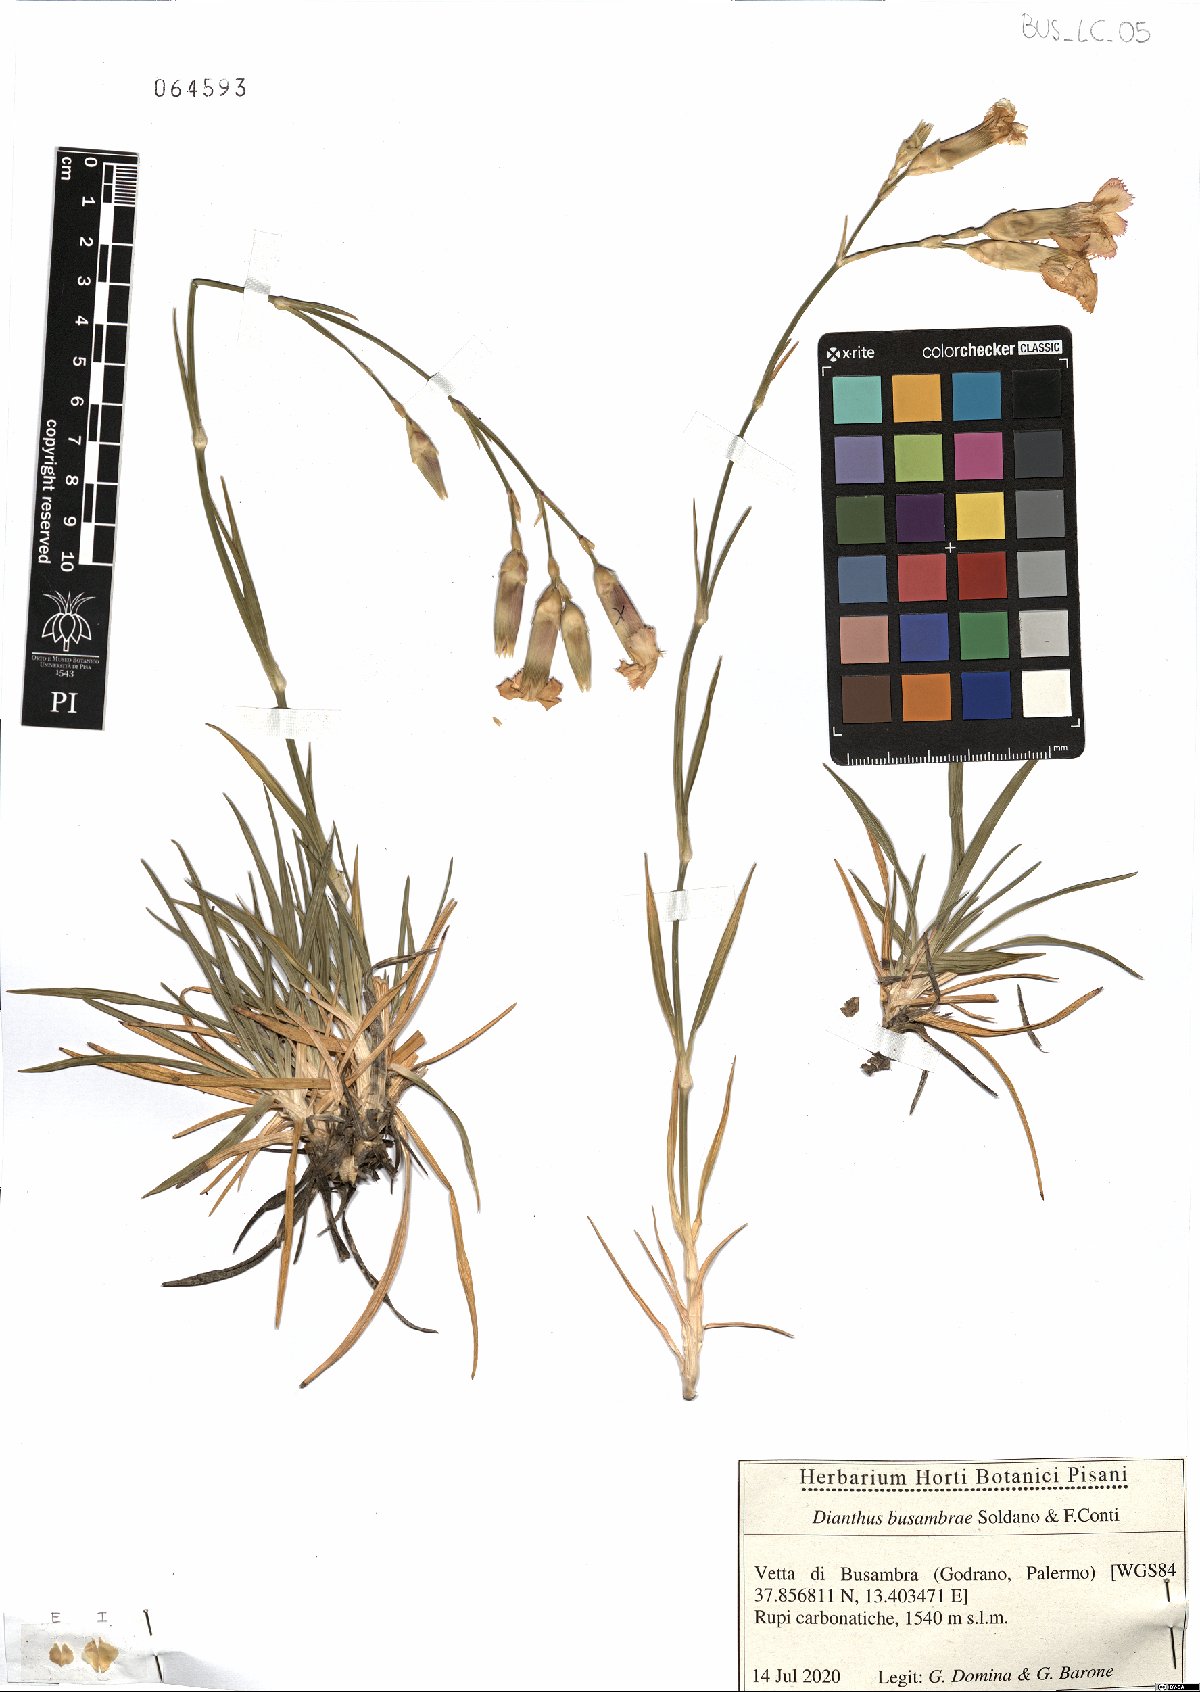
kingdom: Plantae
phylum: Tracheophyta
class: Magnoliopsida
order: Caryophyllales
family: Caryophyllaceae
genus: Dianthus
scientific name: Dianthus busambrae
